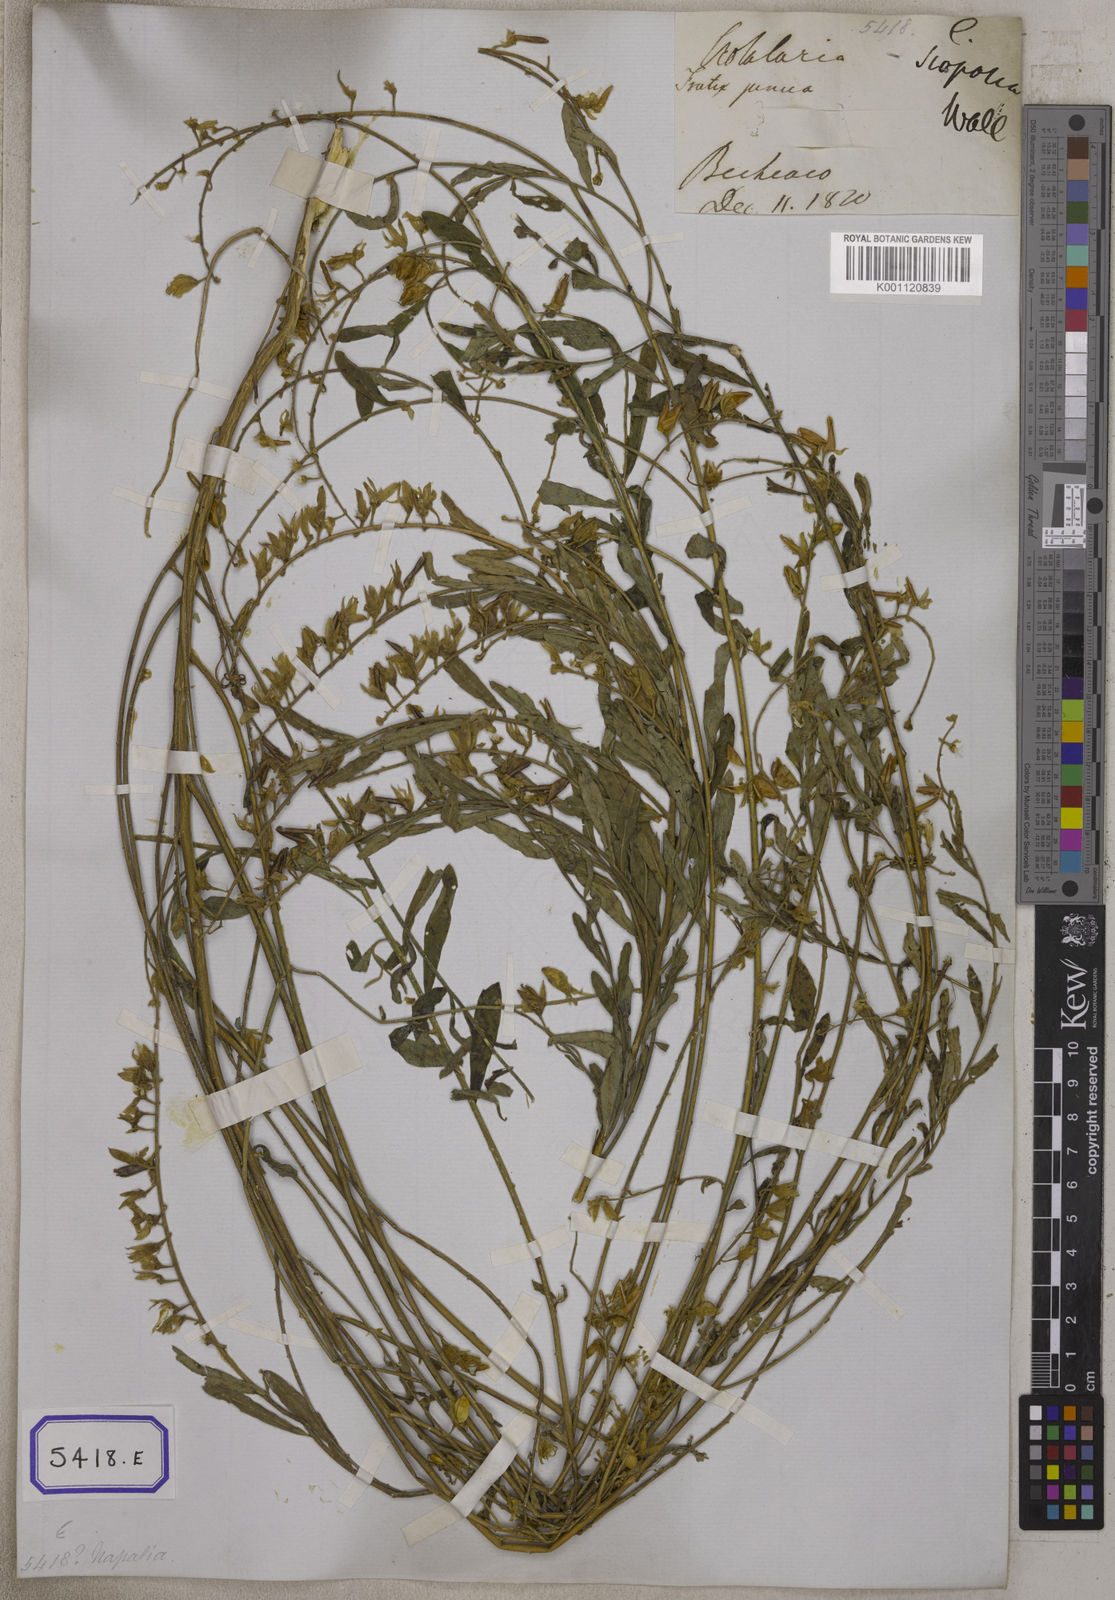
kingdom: Plantae
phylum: Tracheophyta
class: Magnoliopsida
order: Fabales
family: Fabaceae
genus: Crotalaria
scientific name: Crotalaria albida
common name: Taiwan crotalaria
